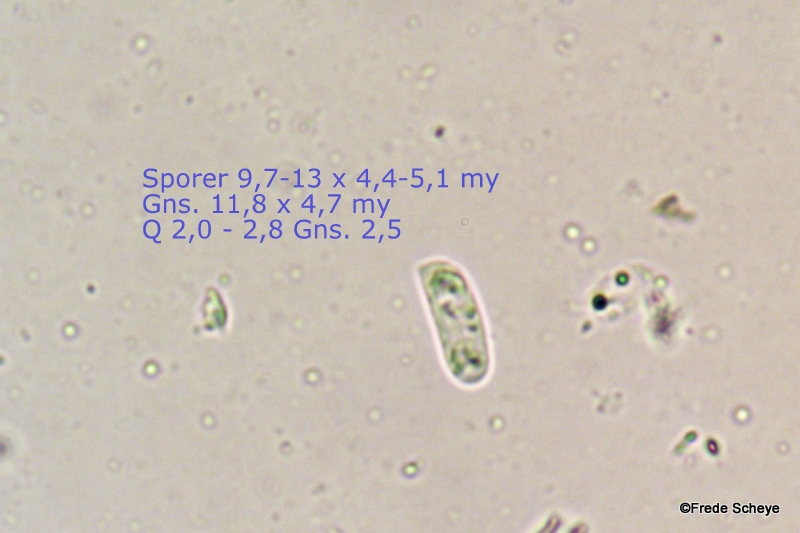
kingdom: Fungi
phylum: Basidiomycota
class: Agaricomycetes
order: Agaricales
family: Physalacriaceae
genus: Flammulina
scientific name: Flammulina elastica
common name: pile-fløjlsfod
